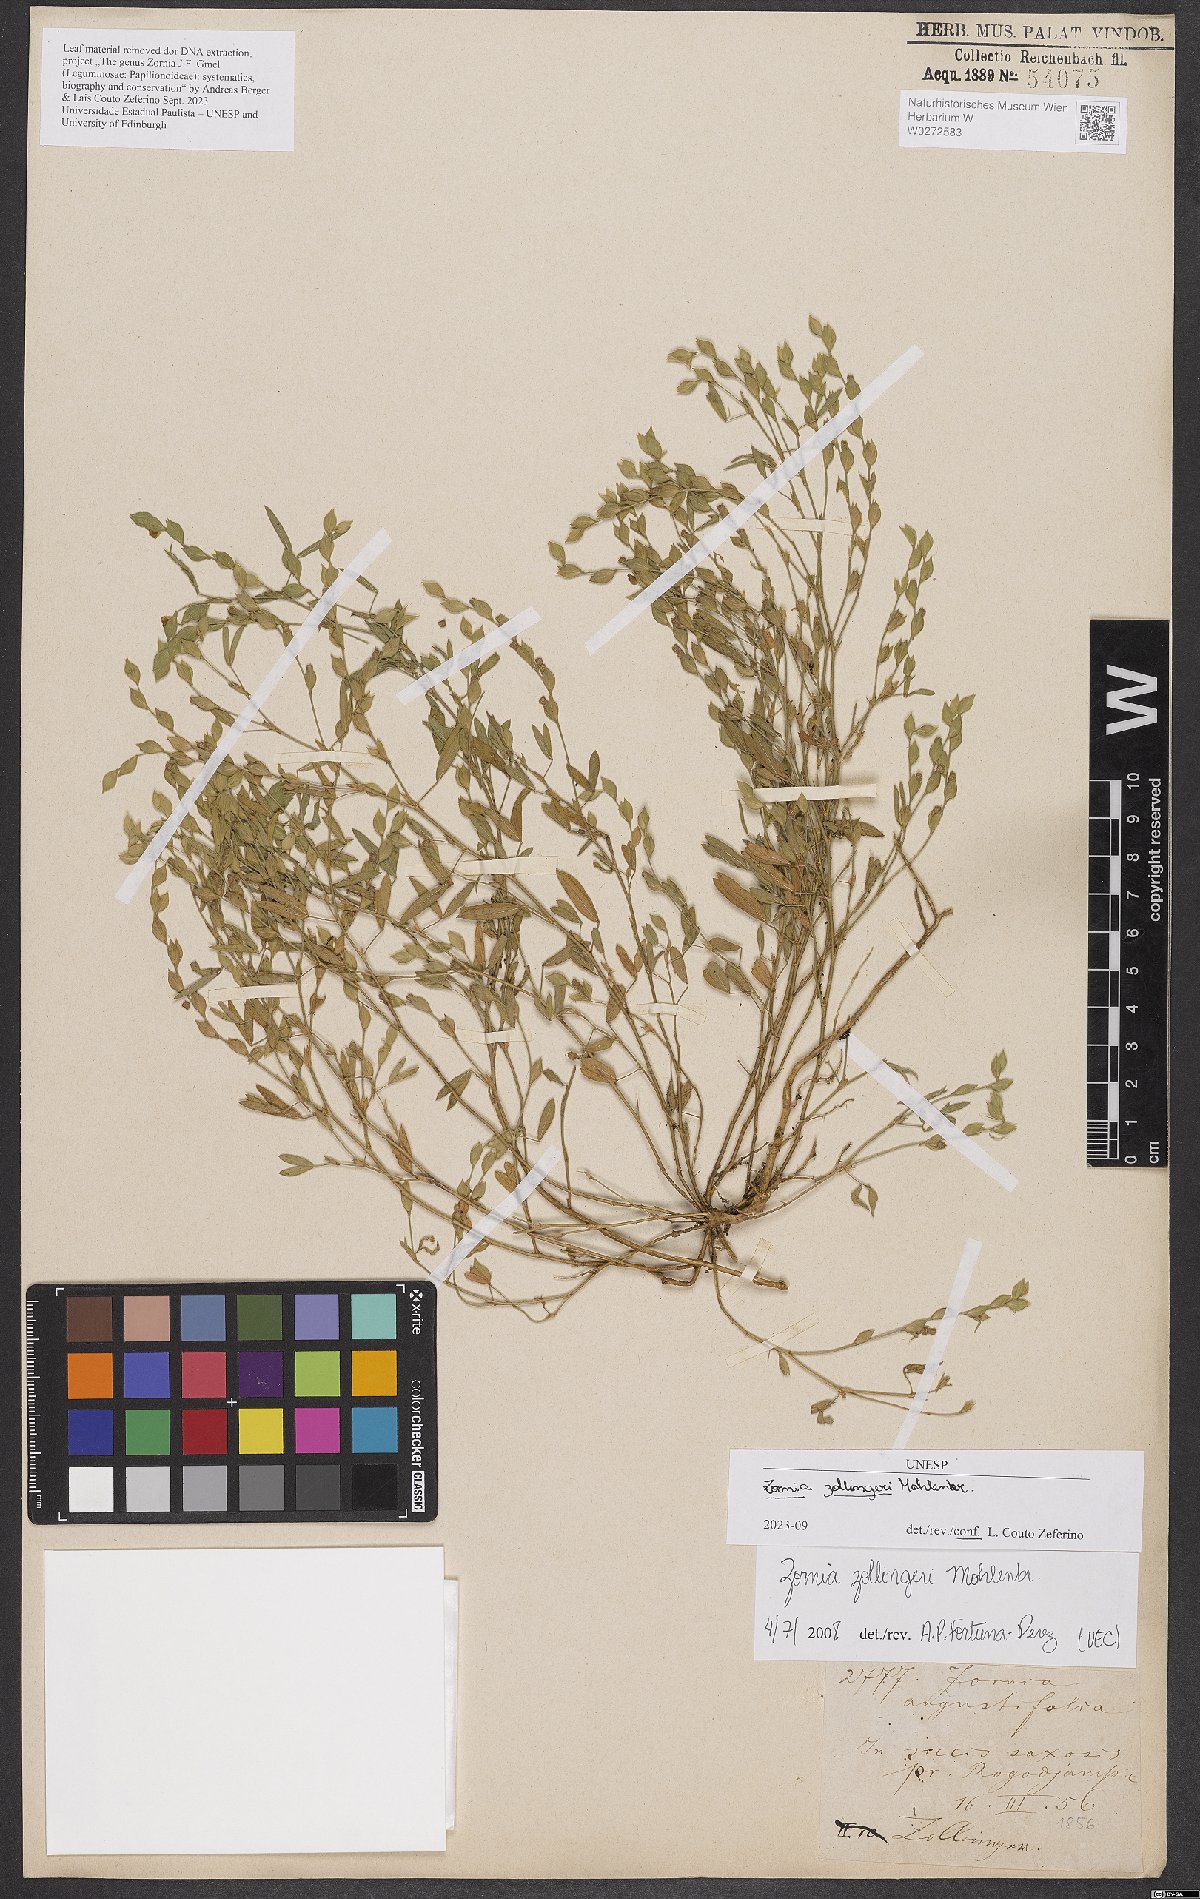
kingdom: Plantae
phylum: Tracheophyta
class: Magnoliopsida
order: Fabales
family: Fabaceae
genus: Zornia
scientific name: Zornia zollingeri
